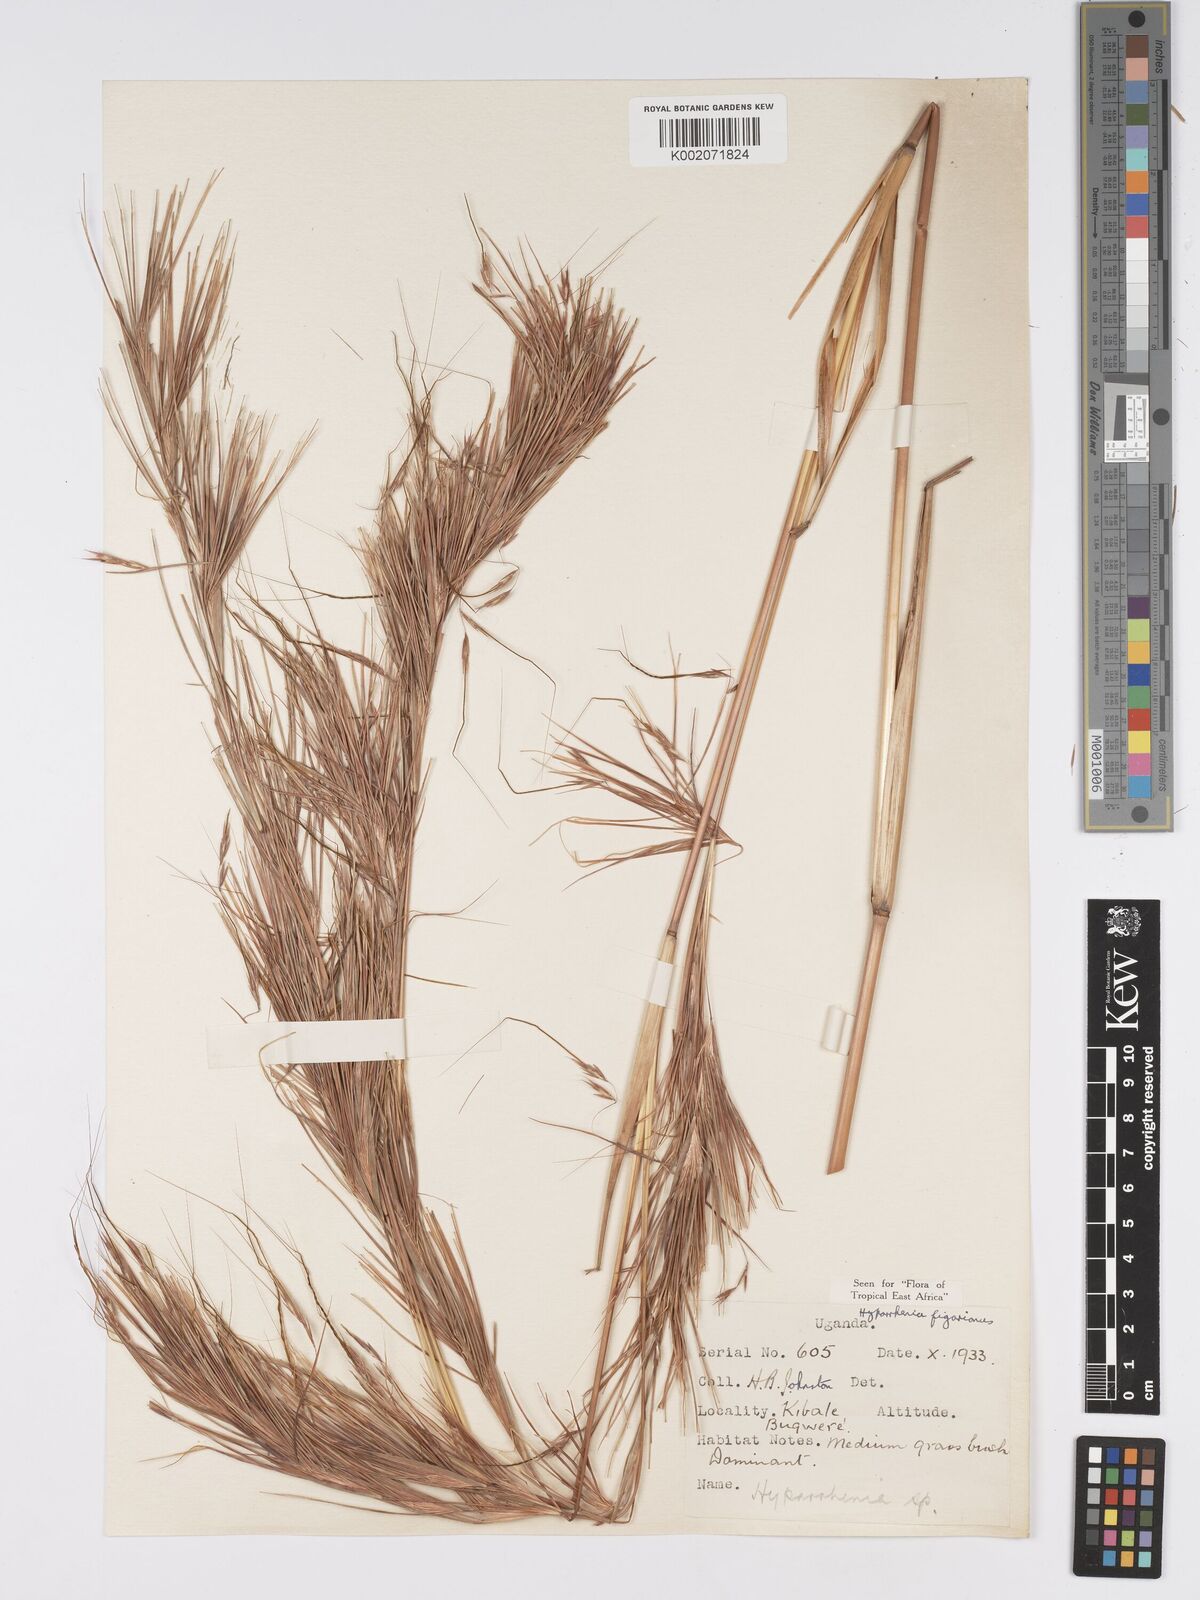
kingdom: Plantae
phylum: Tracheophyta
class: Liliopsida
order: Poales
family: Poaceae
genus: Hyparrhenia
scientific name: Hyparrhenia figariana
